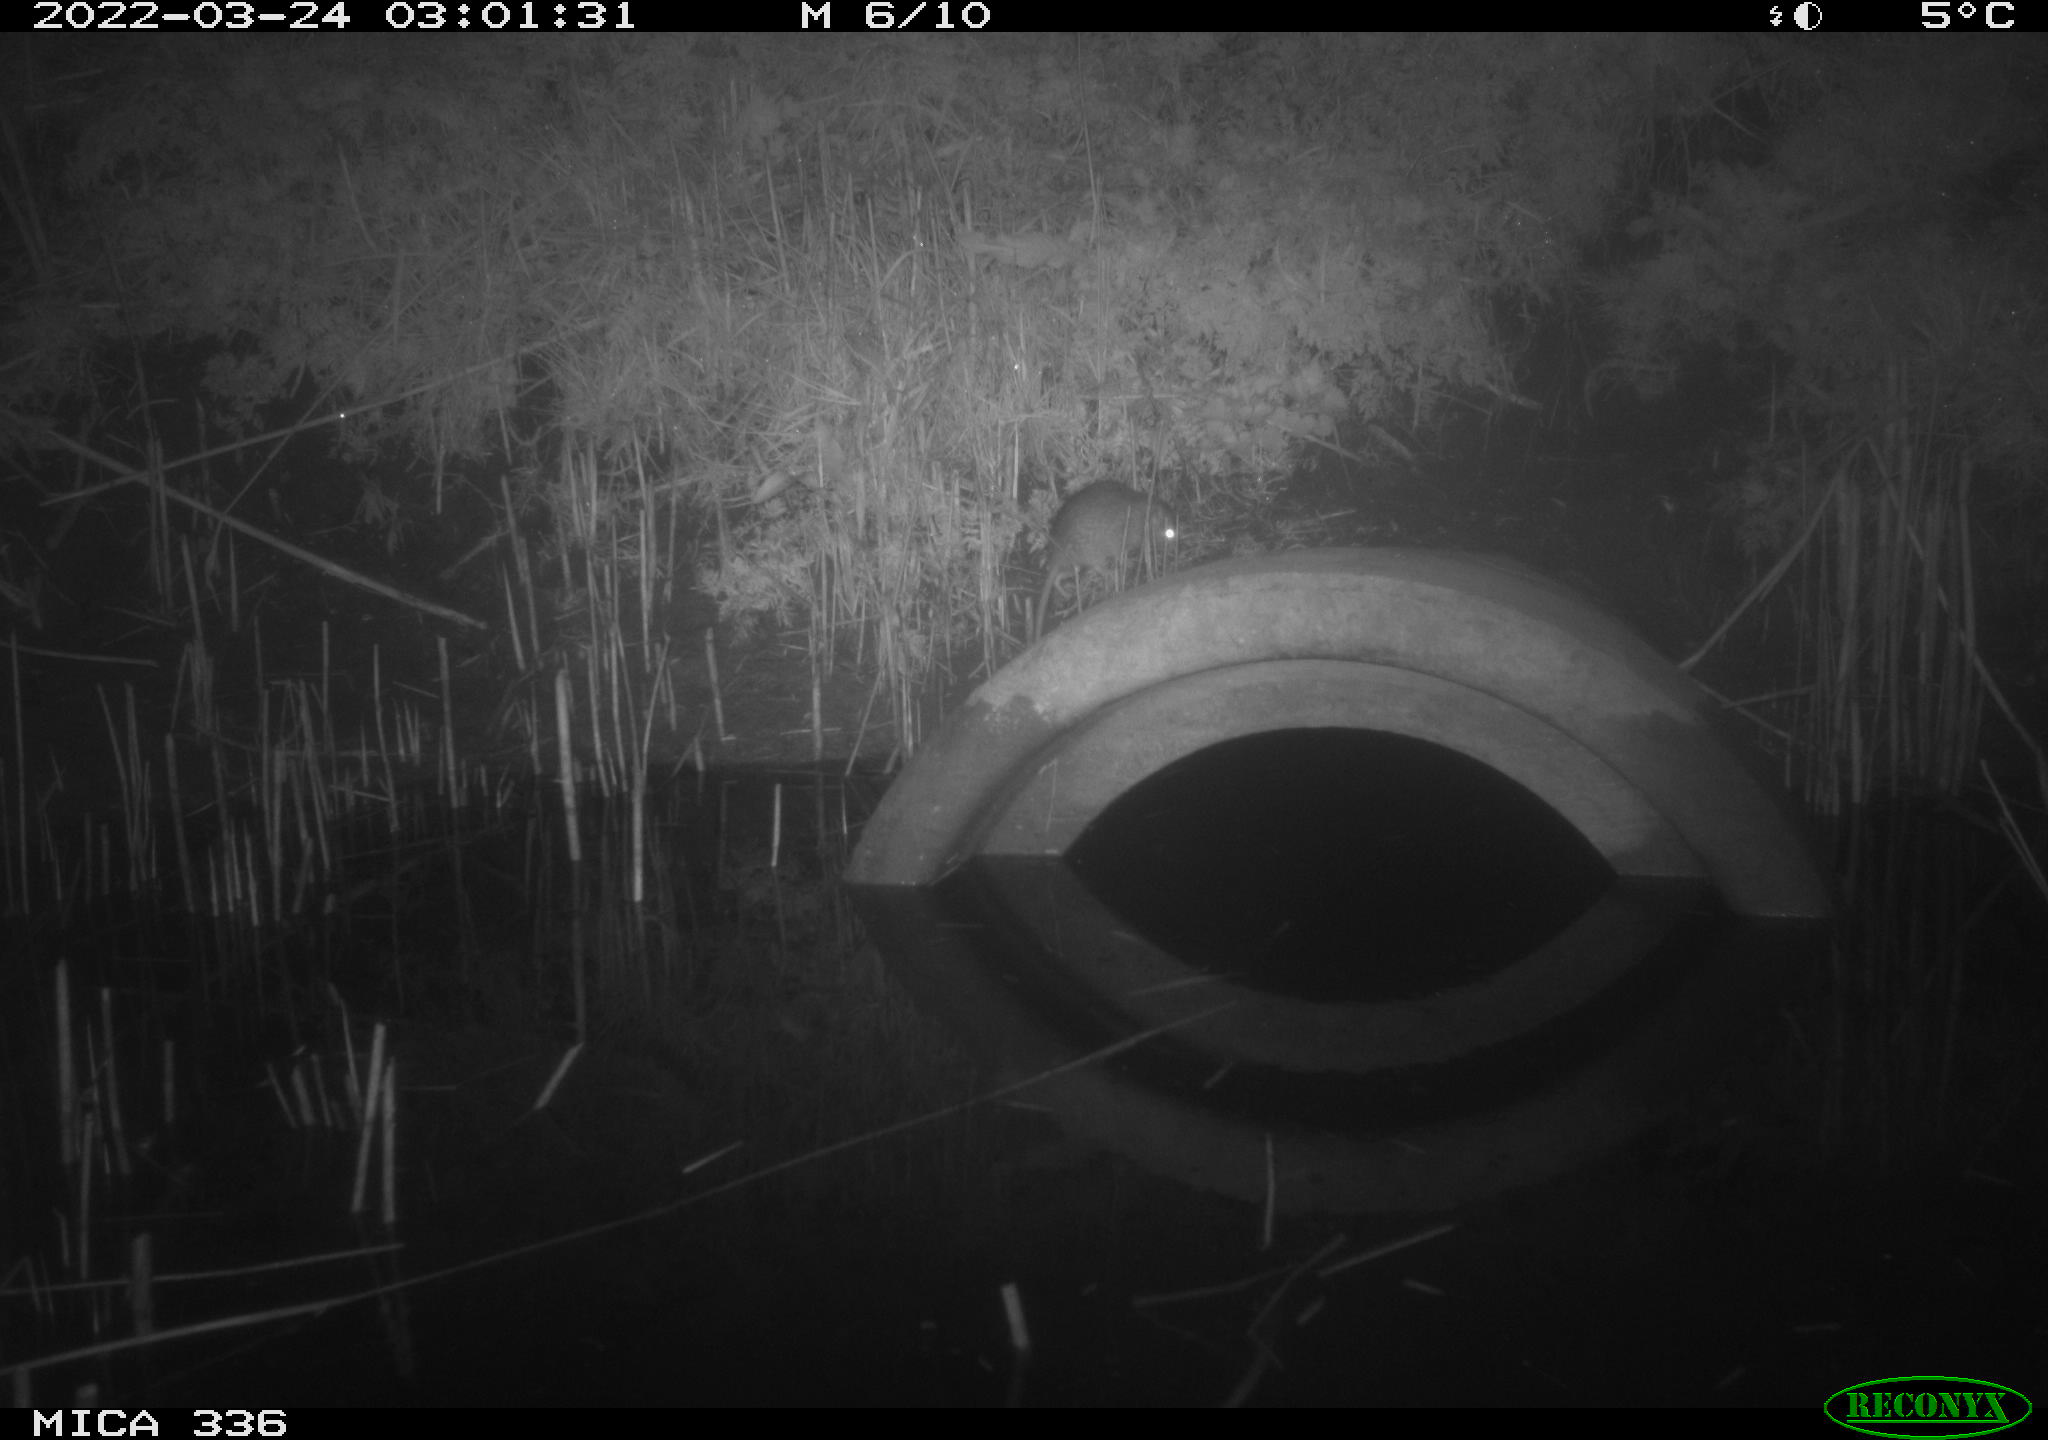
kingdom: Animalia
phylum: Chordata
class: Mammalia
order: Rodentia
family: Muridae
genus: Rattus
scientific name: Rattus norvegicus
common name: Brown rat
